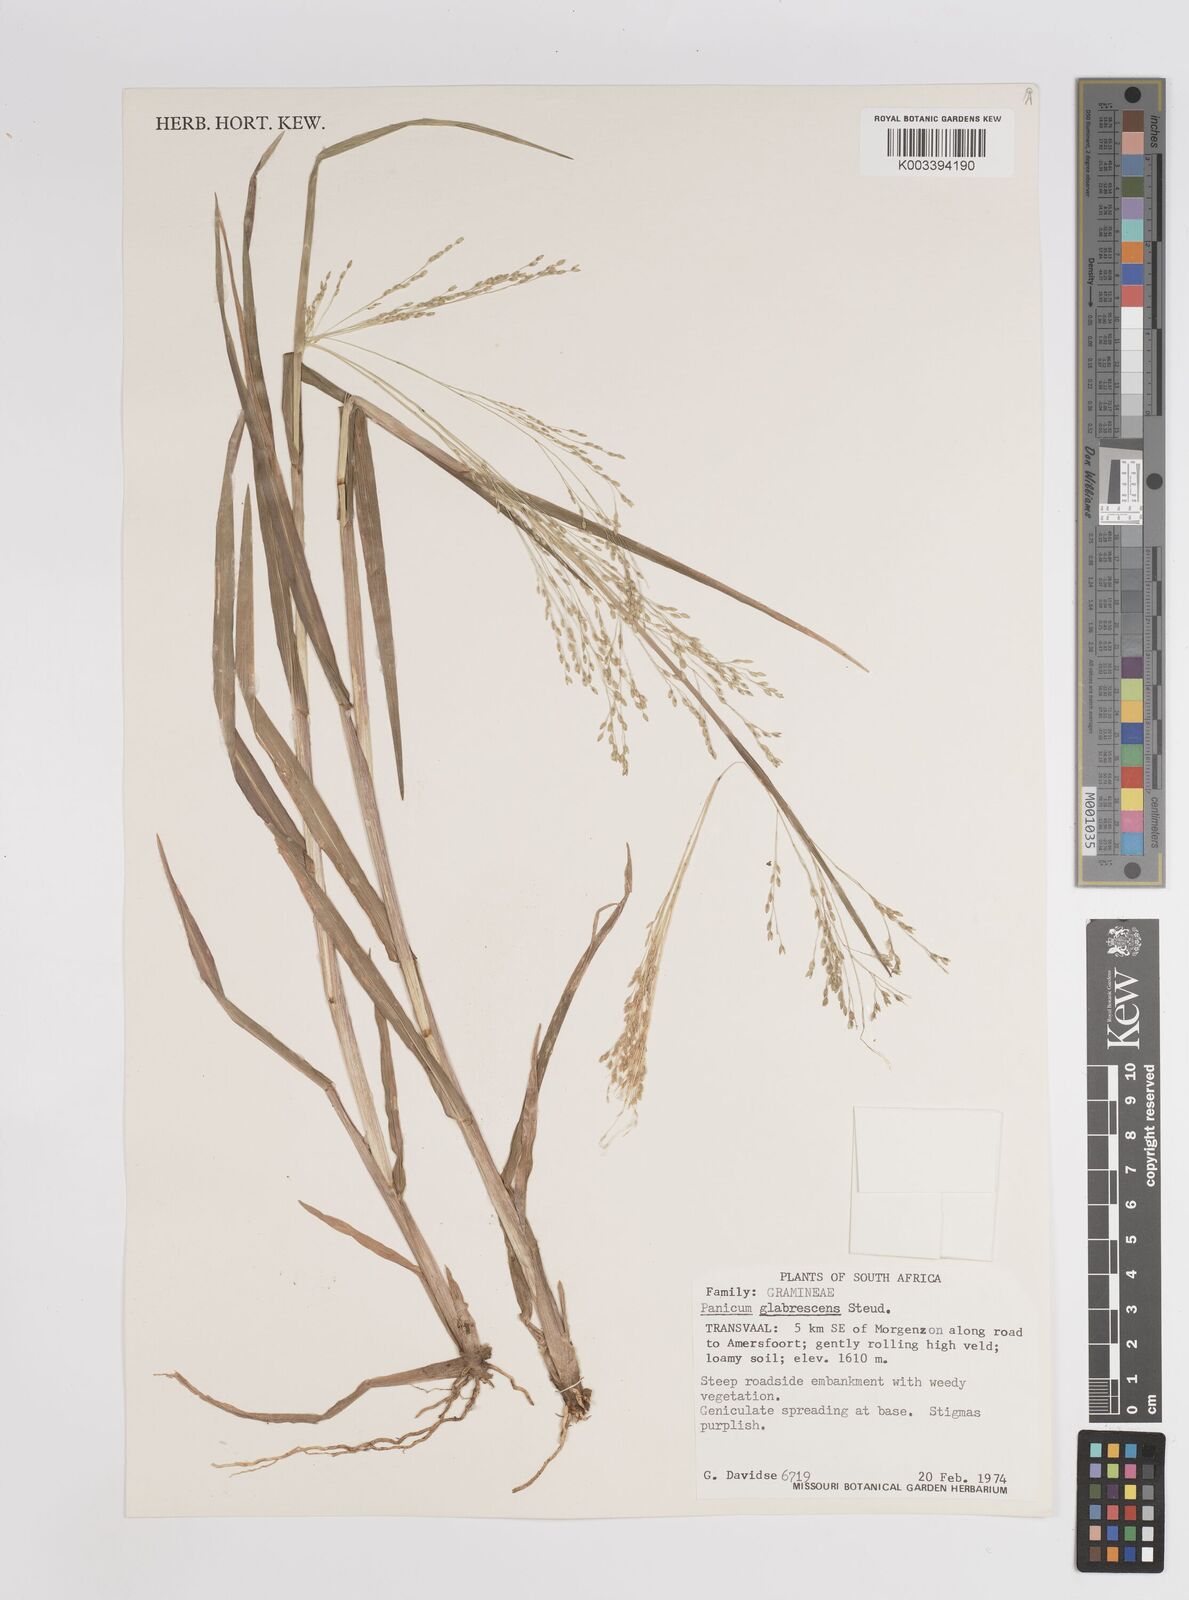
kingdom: Plantae
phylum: Tracheophyta
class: Liliopsida
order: Poales
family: Poaceae
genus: Panicum
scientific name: Panicum schinzii
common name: Sweet grass
